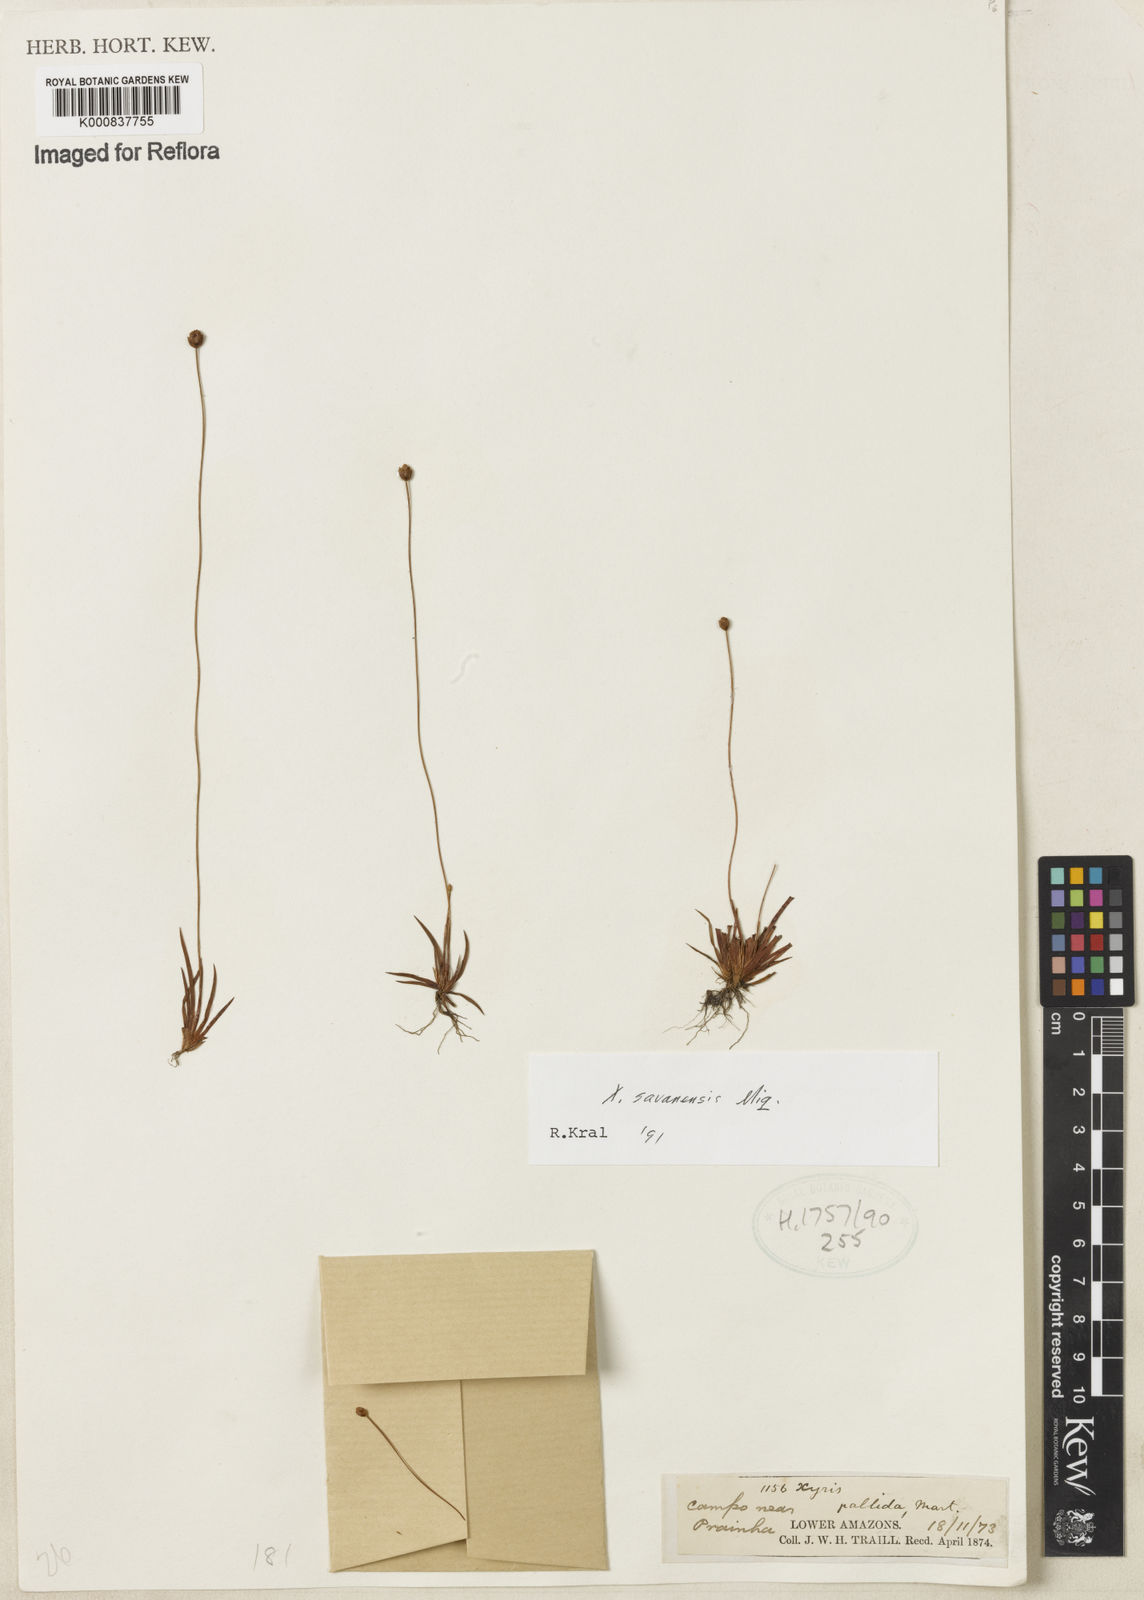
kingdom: Plantae
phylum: Tracheophyta
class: Liliopsida
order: Poales
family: Xyridaceae
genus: Xyris
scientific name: Xyris savanensis
